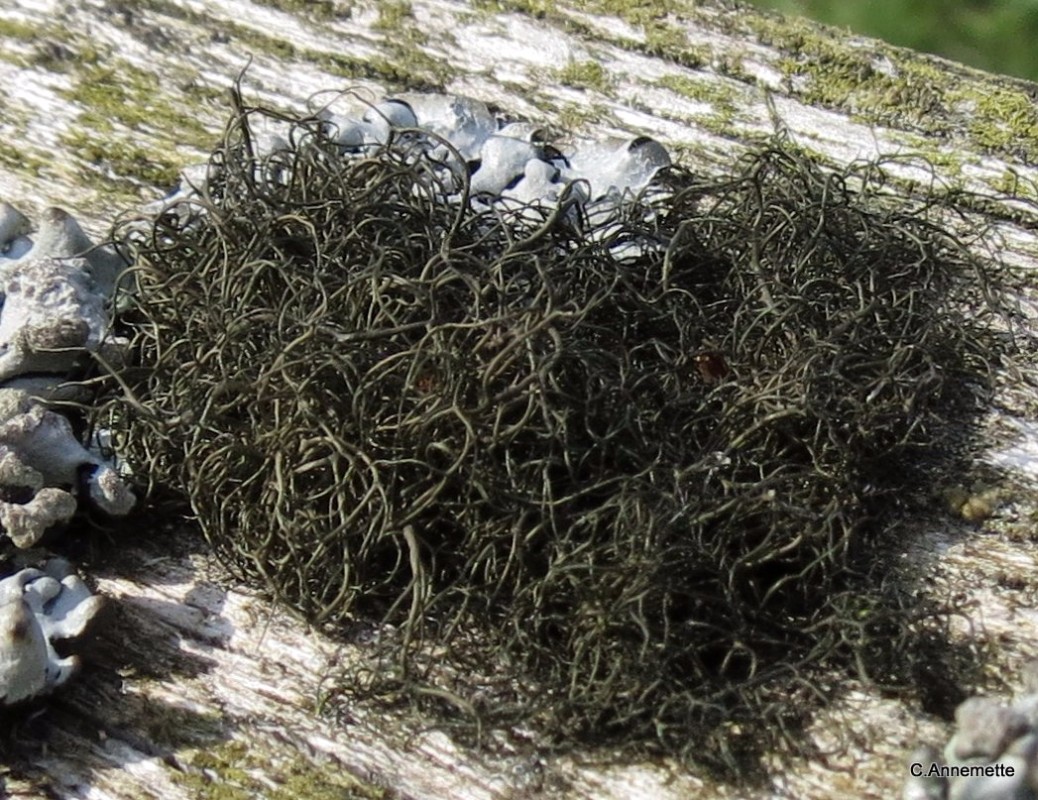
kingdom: Fungi
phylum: Ascomycota
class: Lecanoromycetes
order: Lecanorales
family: Parmeliaceae
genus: Bryoria
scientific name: Bryoria chalybeiformis
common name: mørk mankelav
